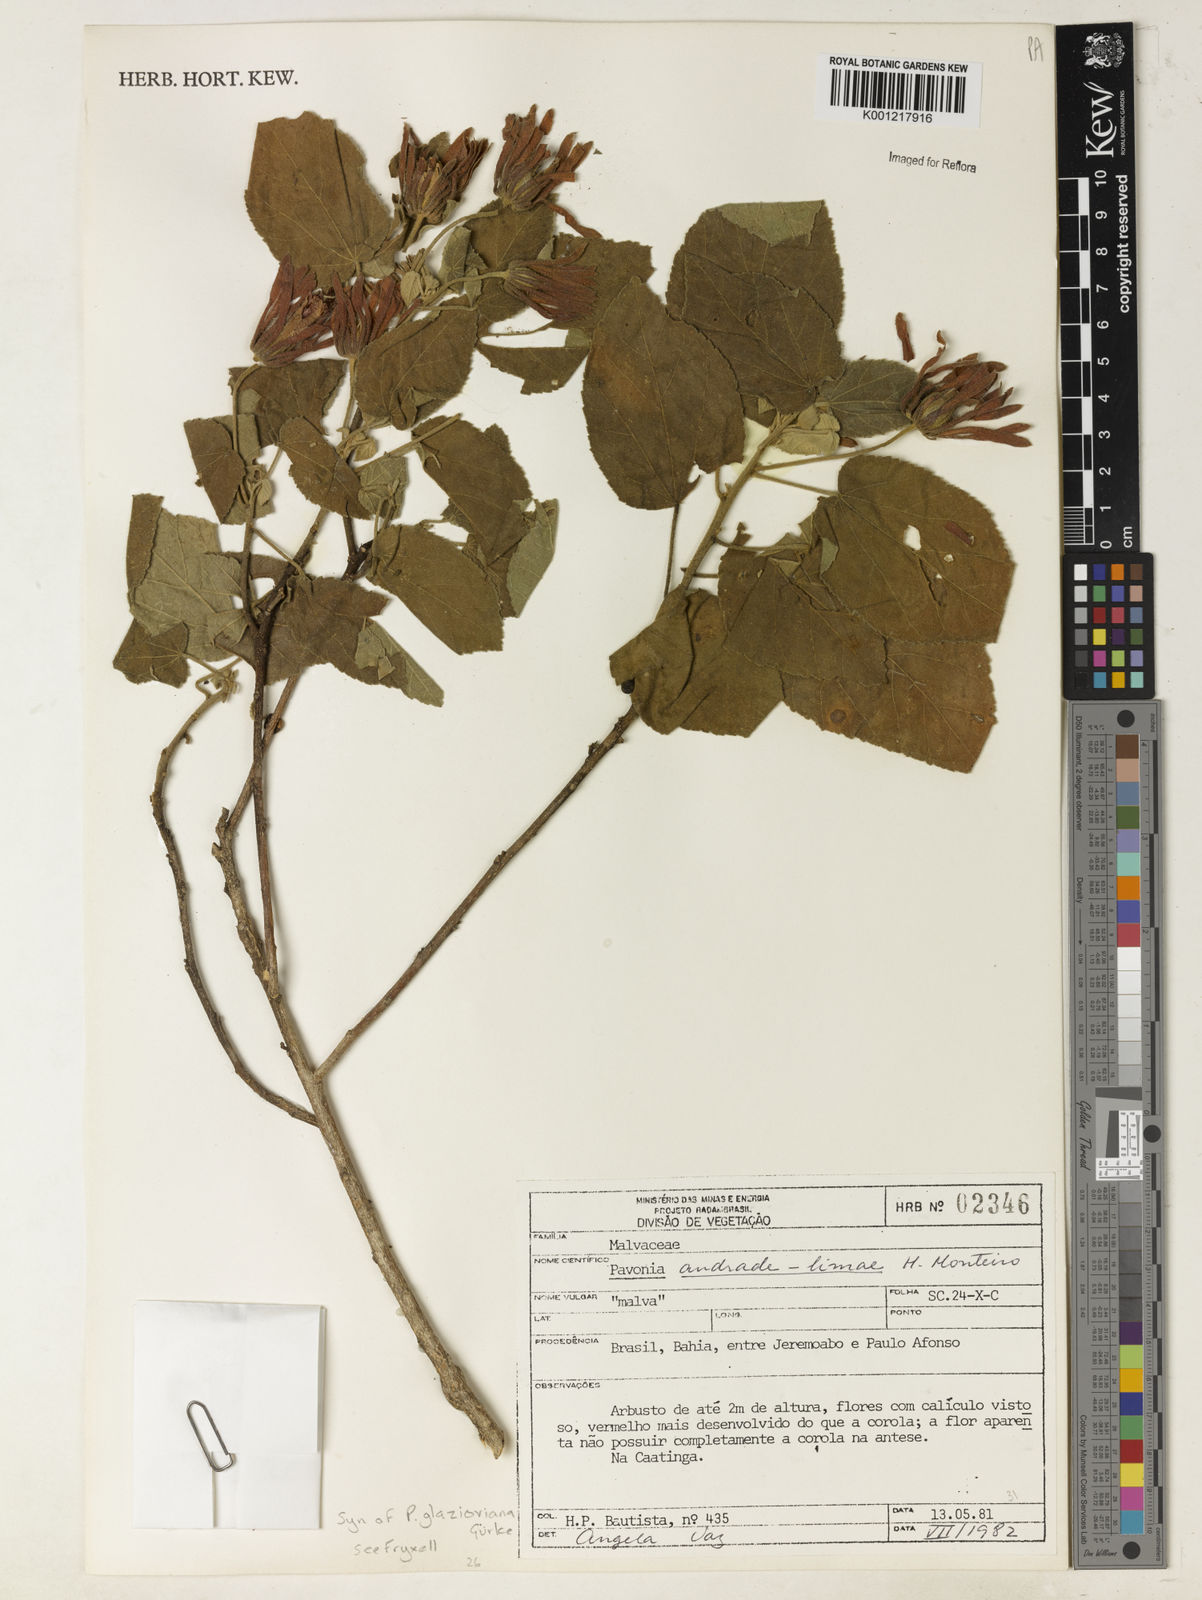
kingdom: Plantae
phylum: Tracheophyta
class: Magnoliopsida
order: Malvales
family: Malvaceae
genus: Pavonia
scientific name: Pavonia
